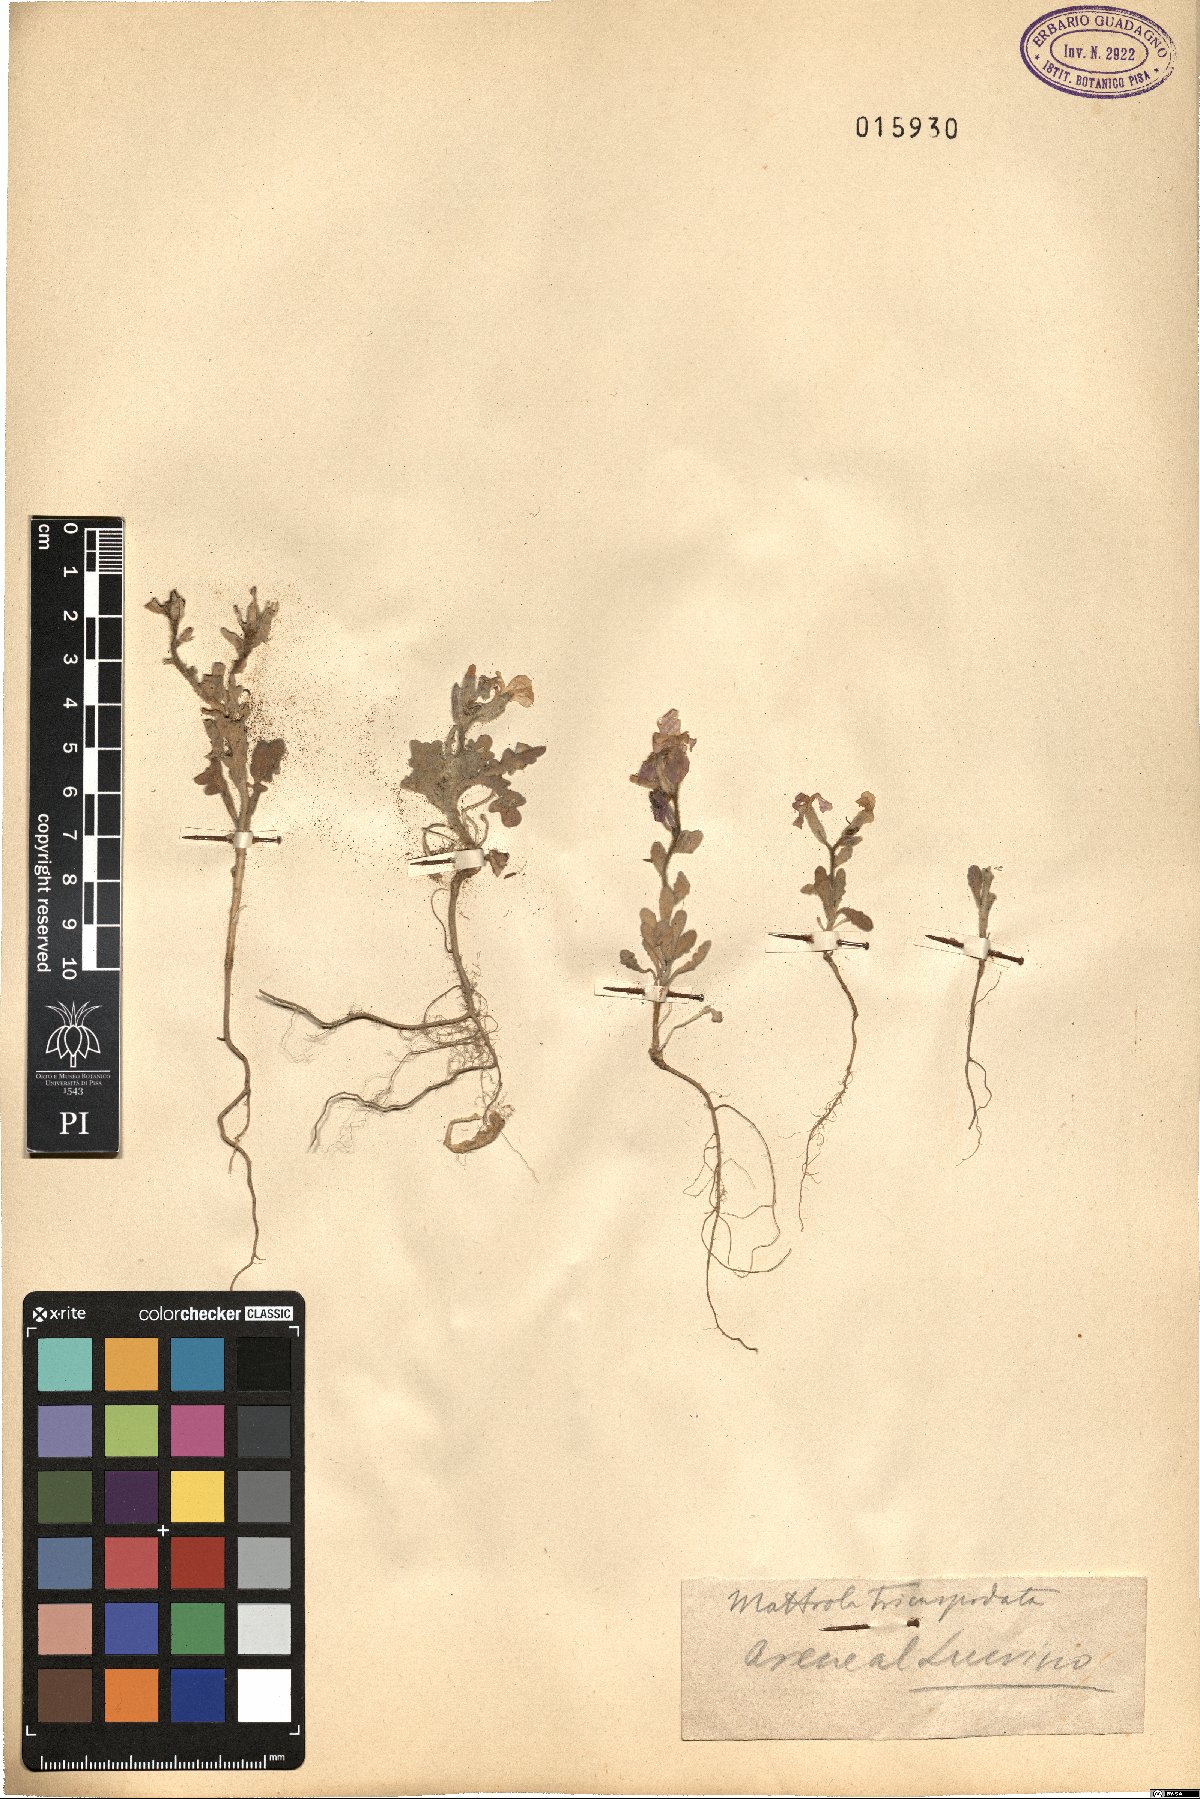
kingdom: Plantae
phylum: Tracheophyta
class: Magnoliopsida
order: Brassicales
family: Brassicaceae
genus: Matthiola
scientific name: Matthiola tricuspidata
